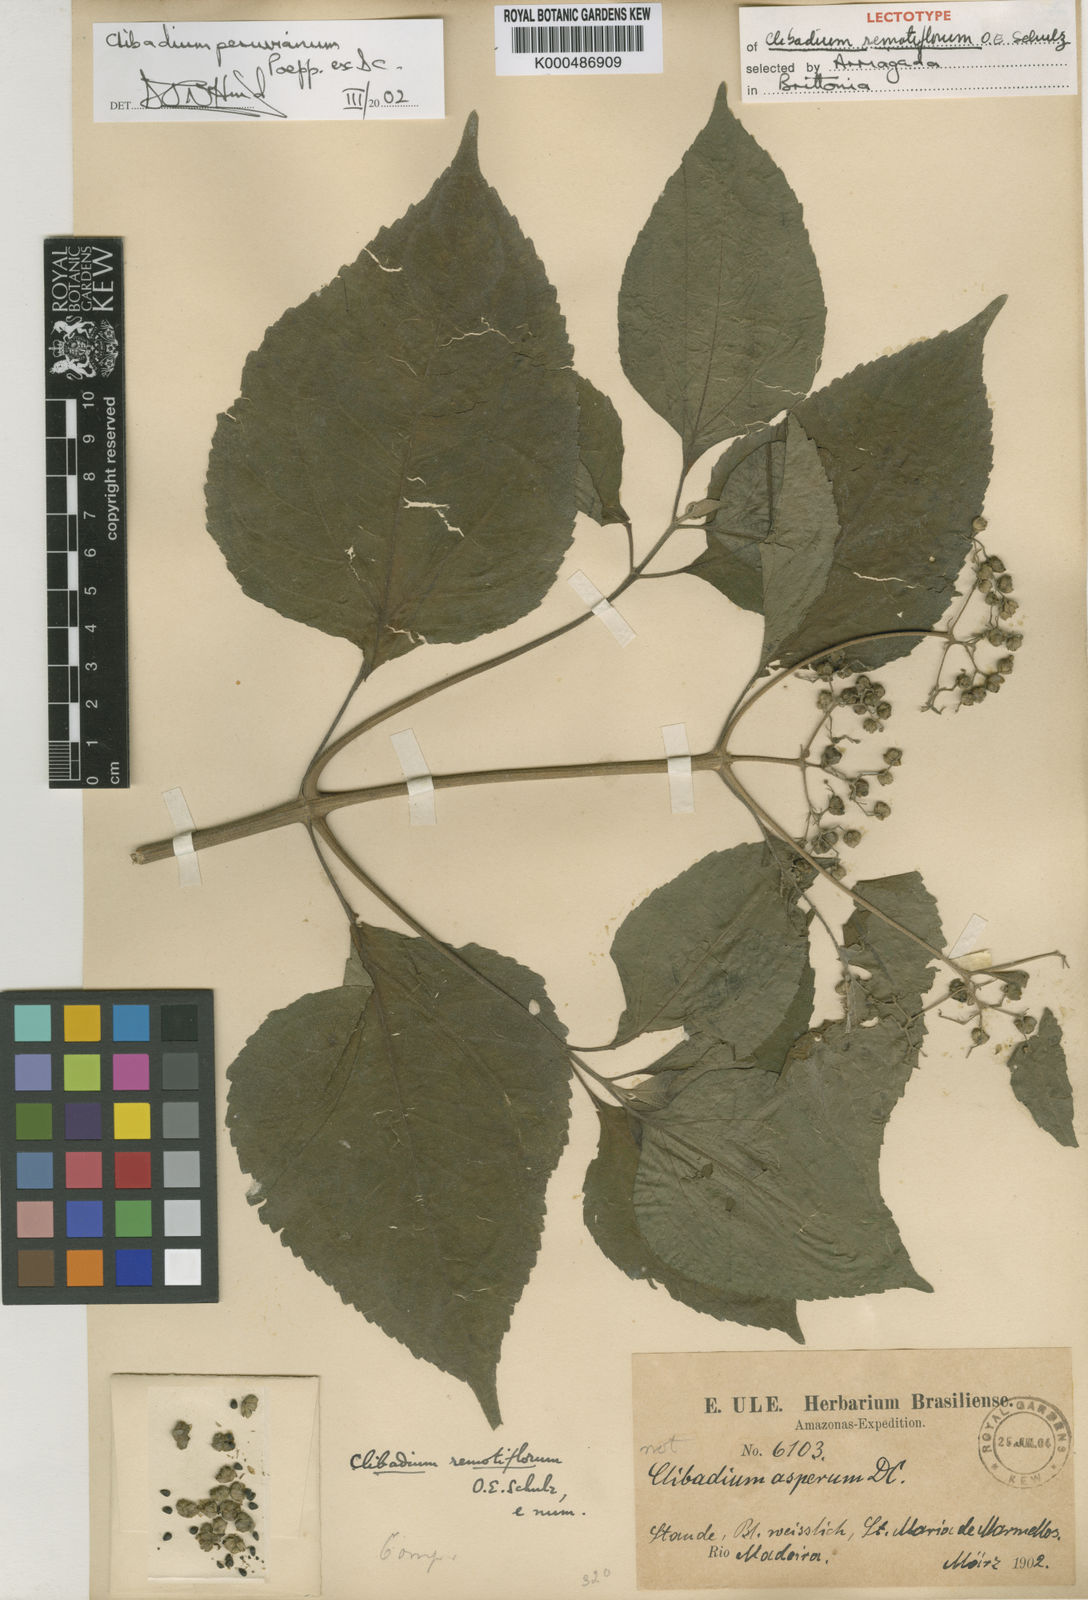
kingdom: Plantae
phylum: Tracheophyta
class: Magnoliopsida
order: Asterales
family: Asteraceae
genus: Clibadium
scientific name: Clibadium peruvianum
